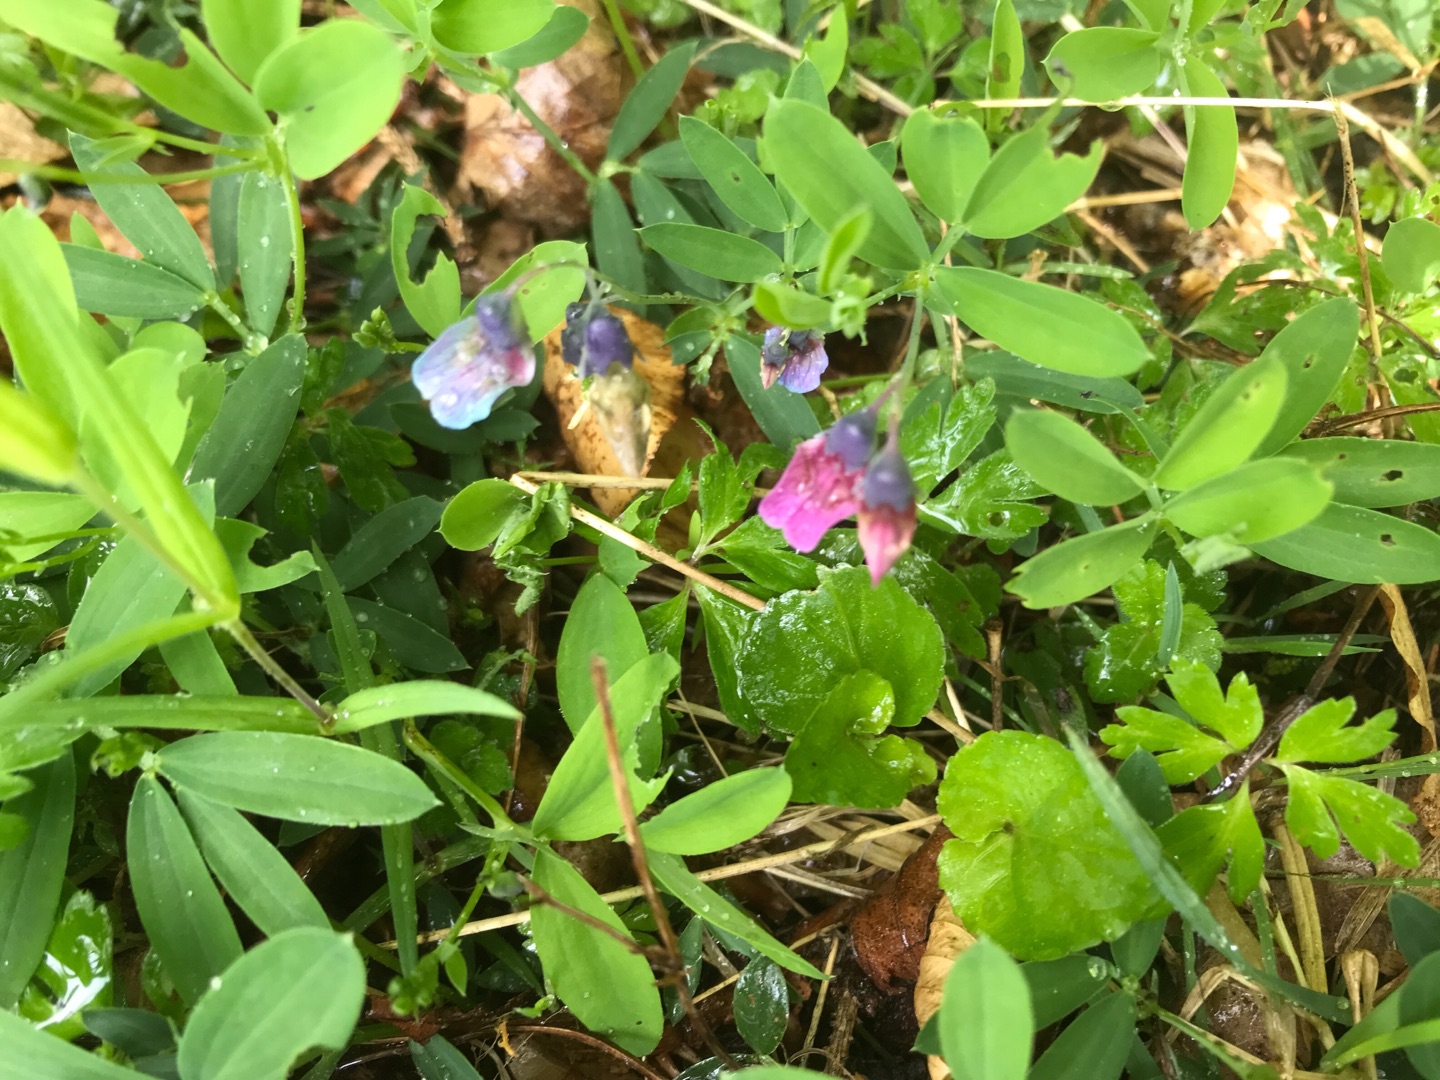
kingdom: Plantae
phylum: Tracheophyta
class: Magnoliopsida
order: Fabales
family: Fabaceae
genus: Lathyrus
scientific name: Lathyrus linifolius
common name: Krat-fladbælg
